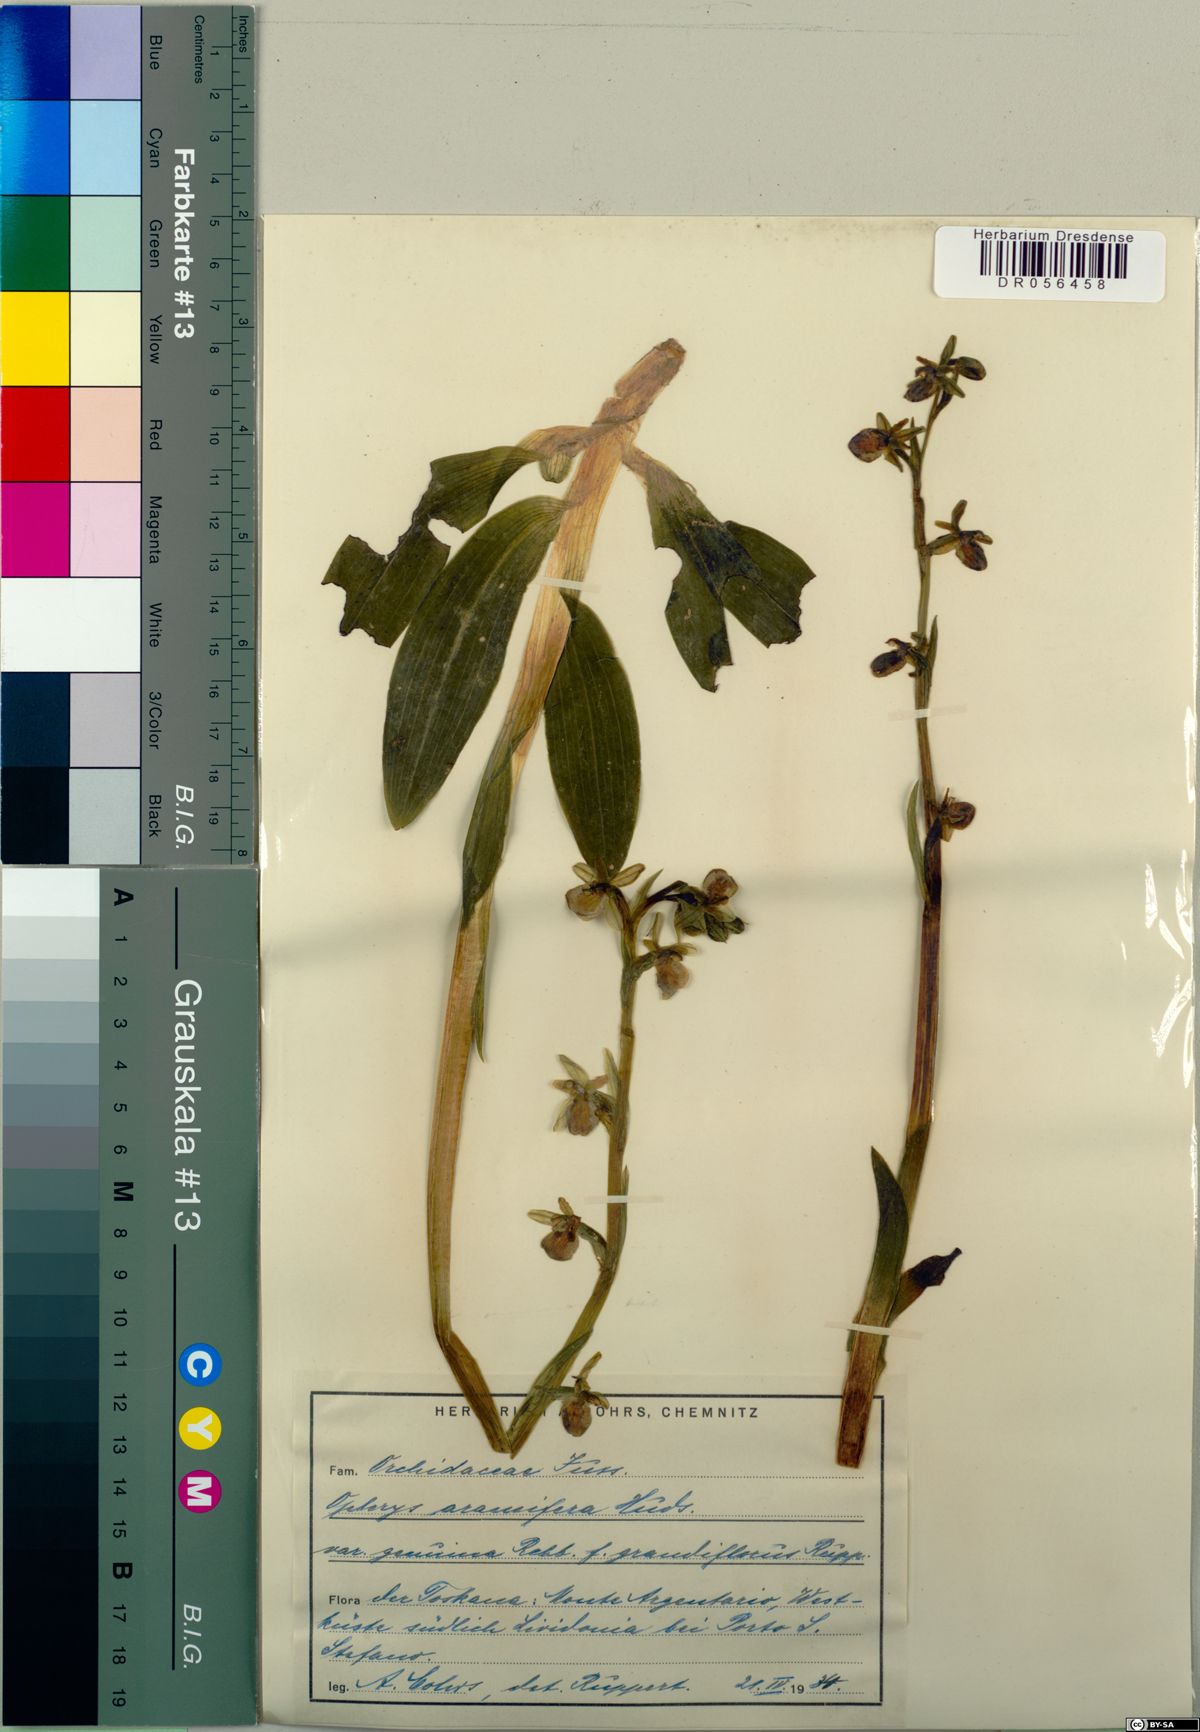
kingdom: Plantae
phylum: Tracheophyta
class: Liliopsida
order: Asparagales
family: Orchidaceae
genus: Ophrys
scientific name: Ophrys sphegodes
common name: Early spider-orchid
